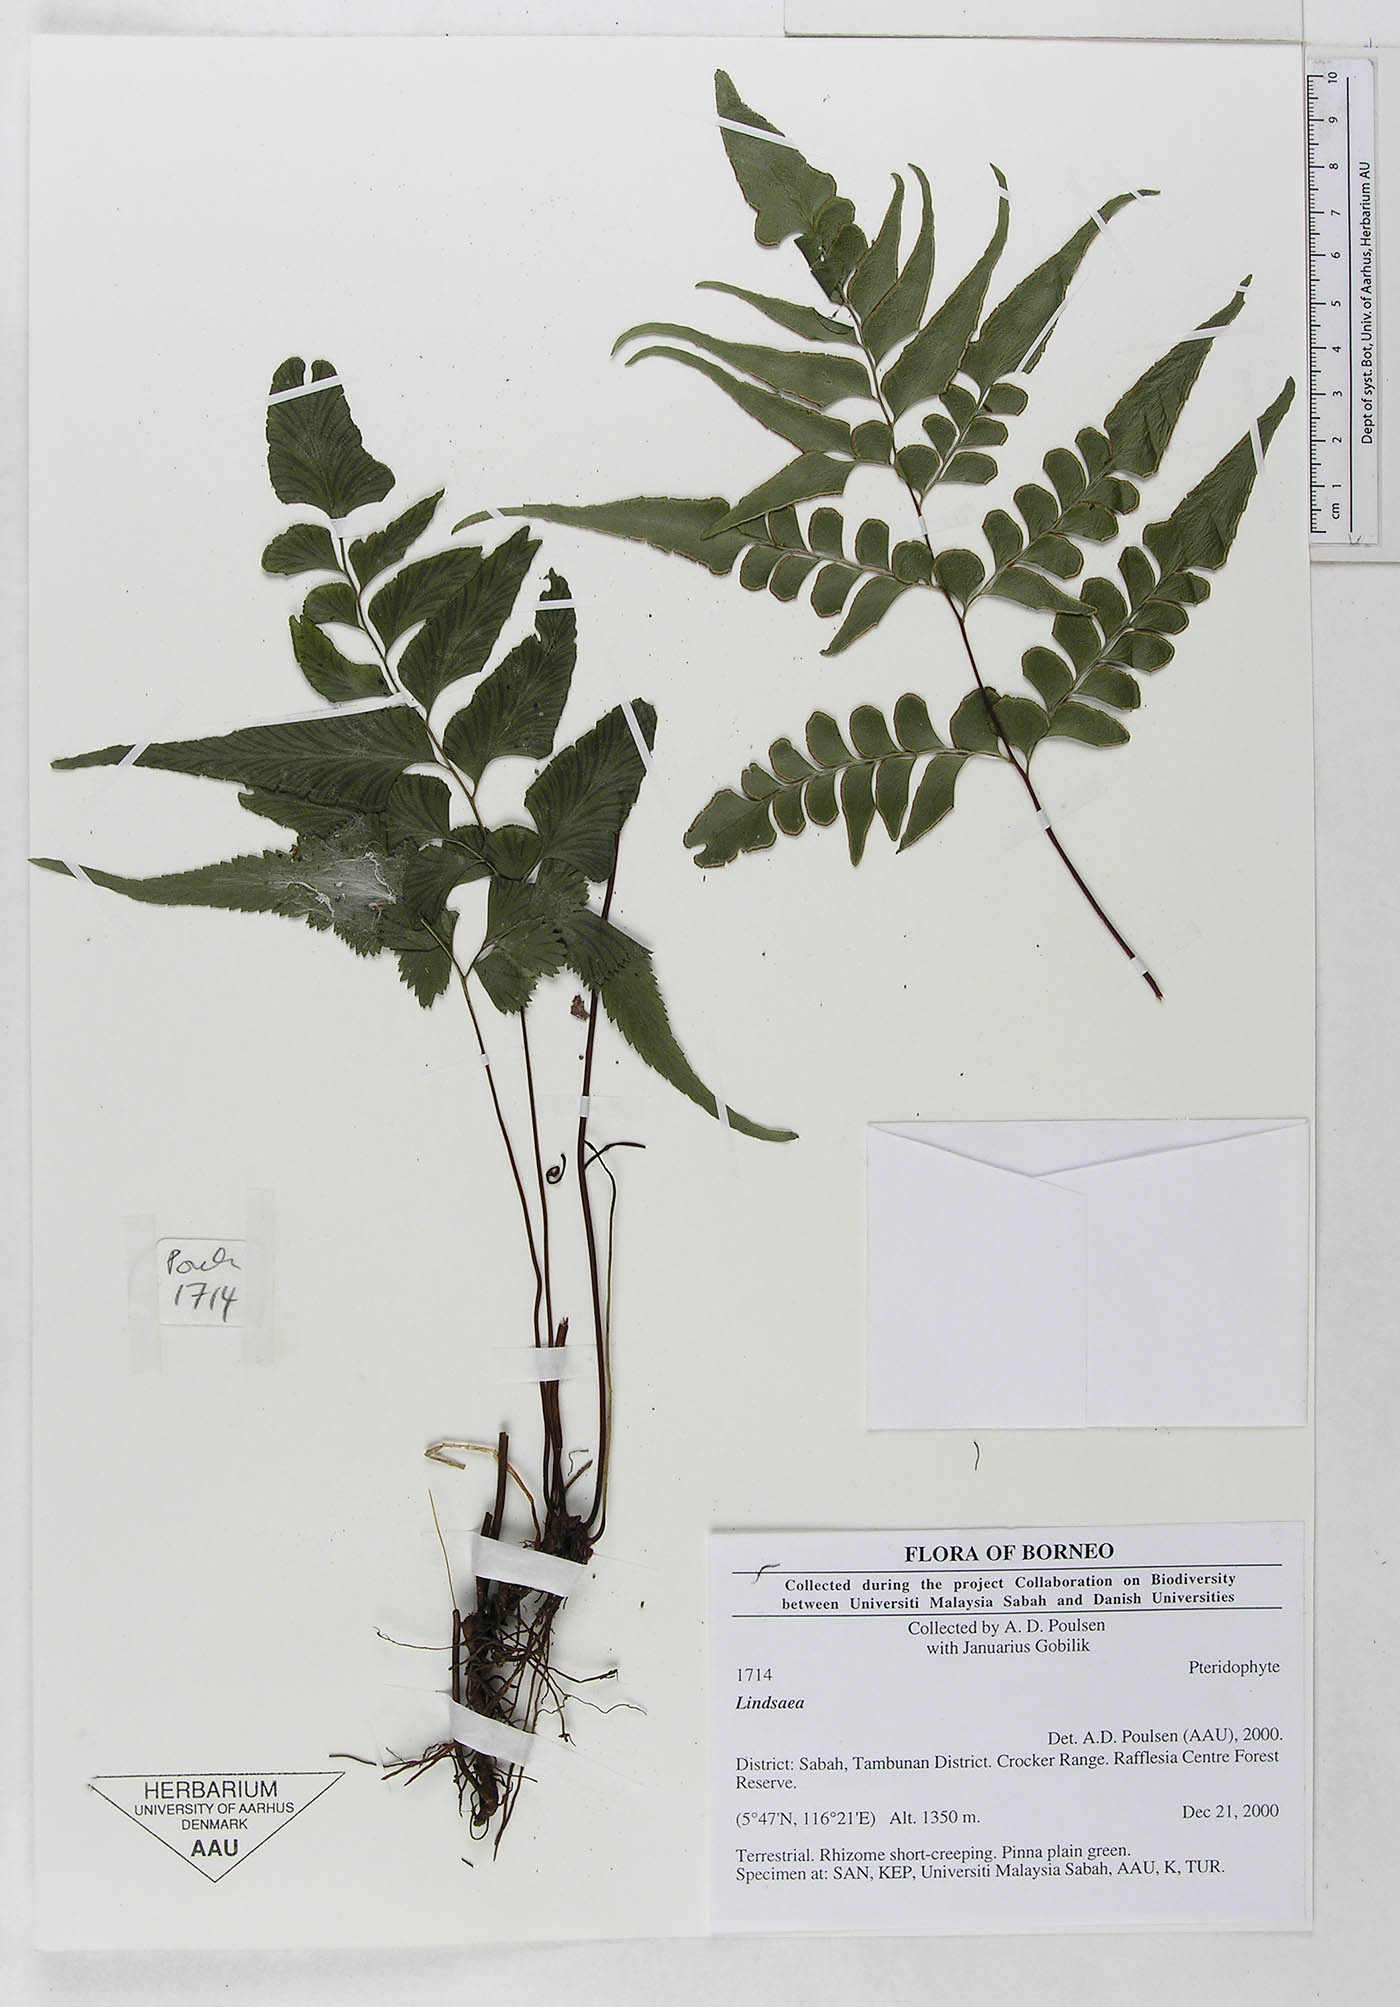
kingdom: Plantae
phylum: Tracheophyta
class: Polypodiopsida
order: Polypodiales
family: Dennstaedtiaceae
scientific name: Dennstaedtiaceae
